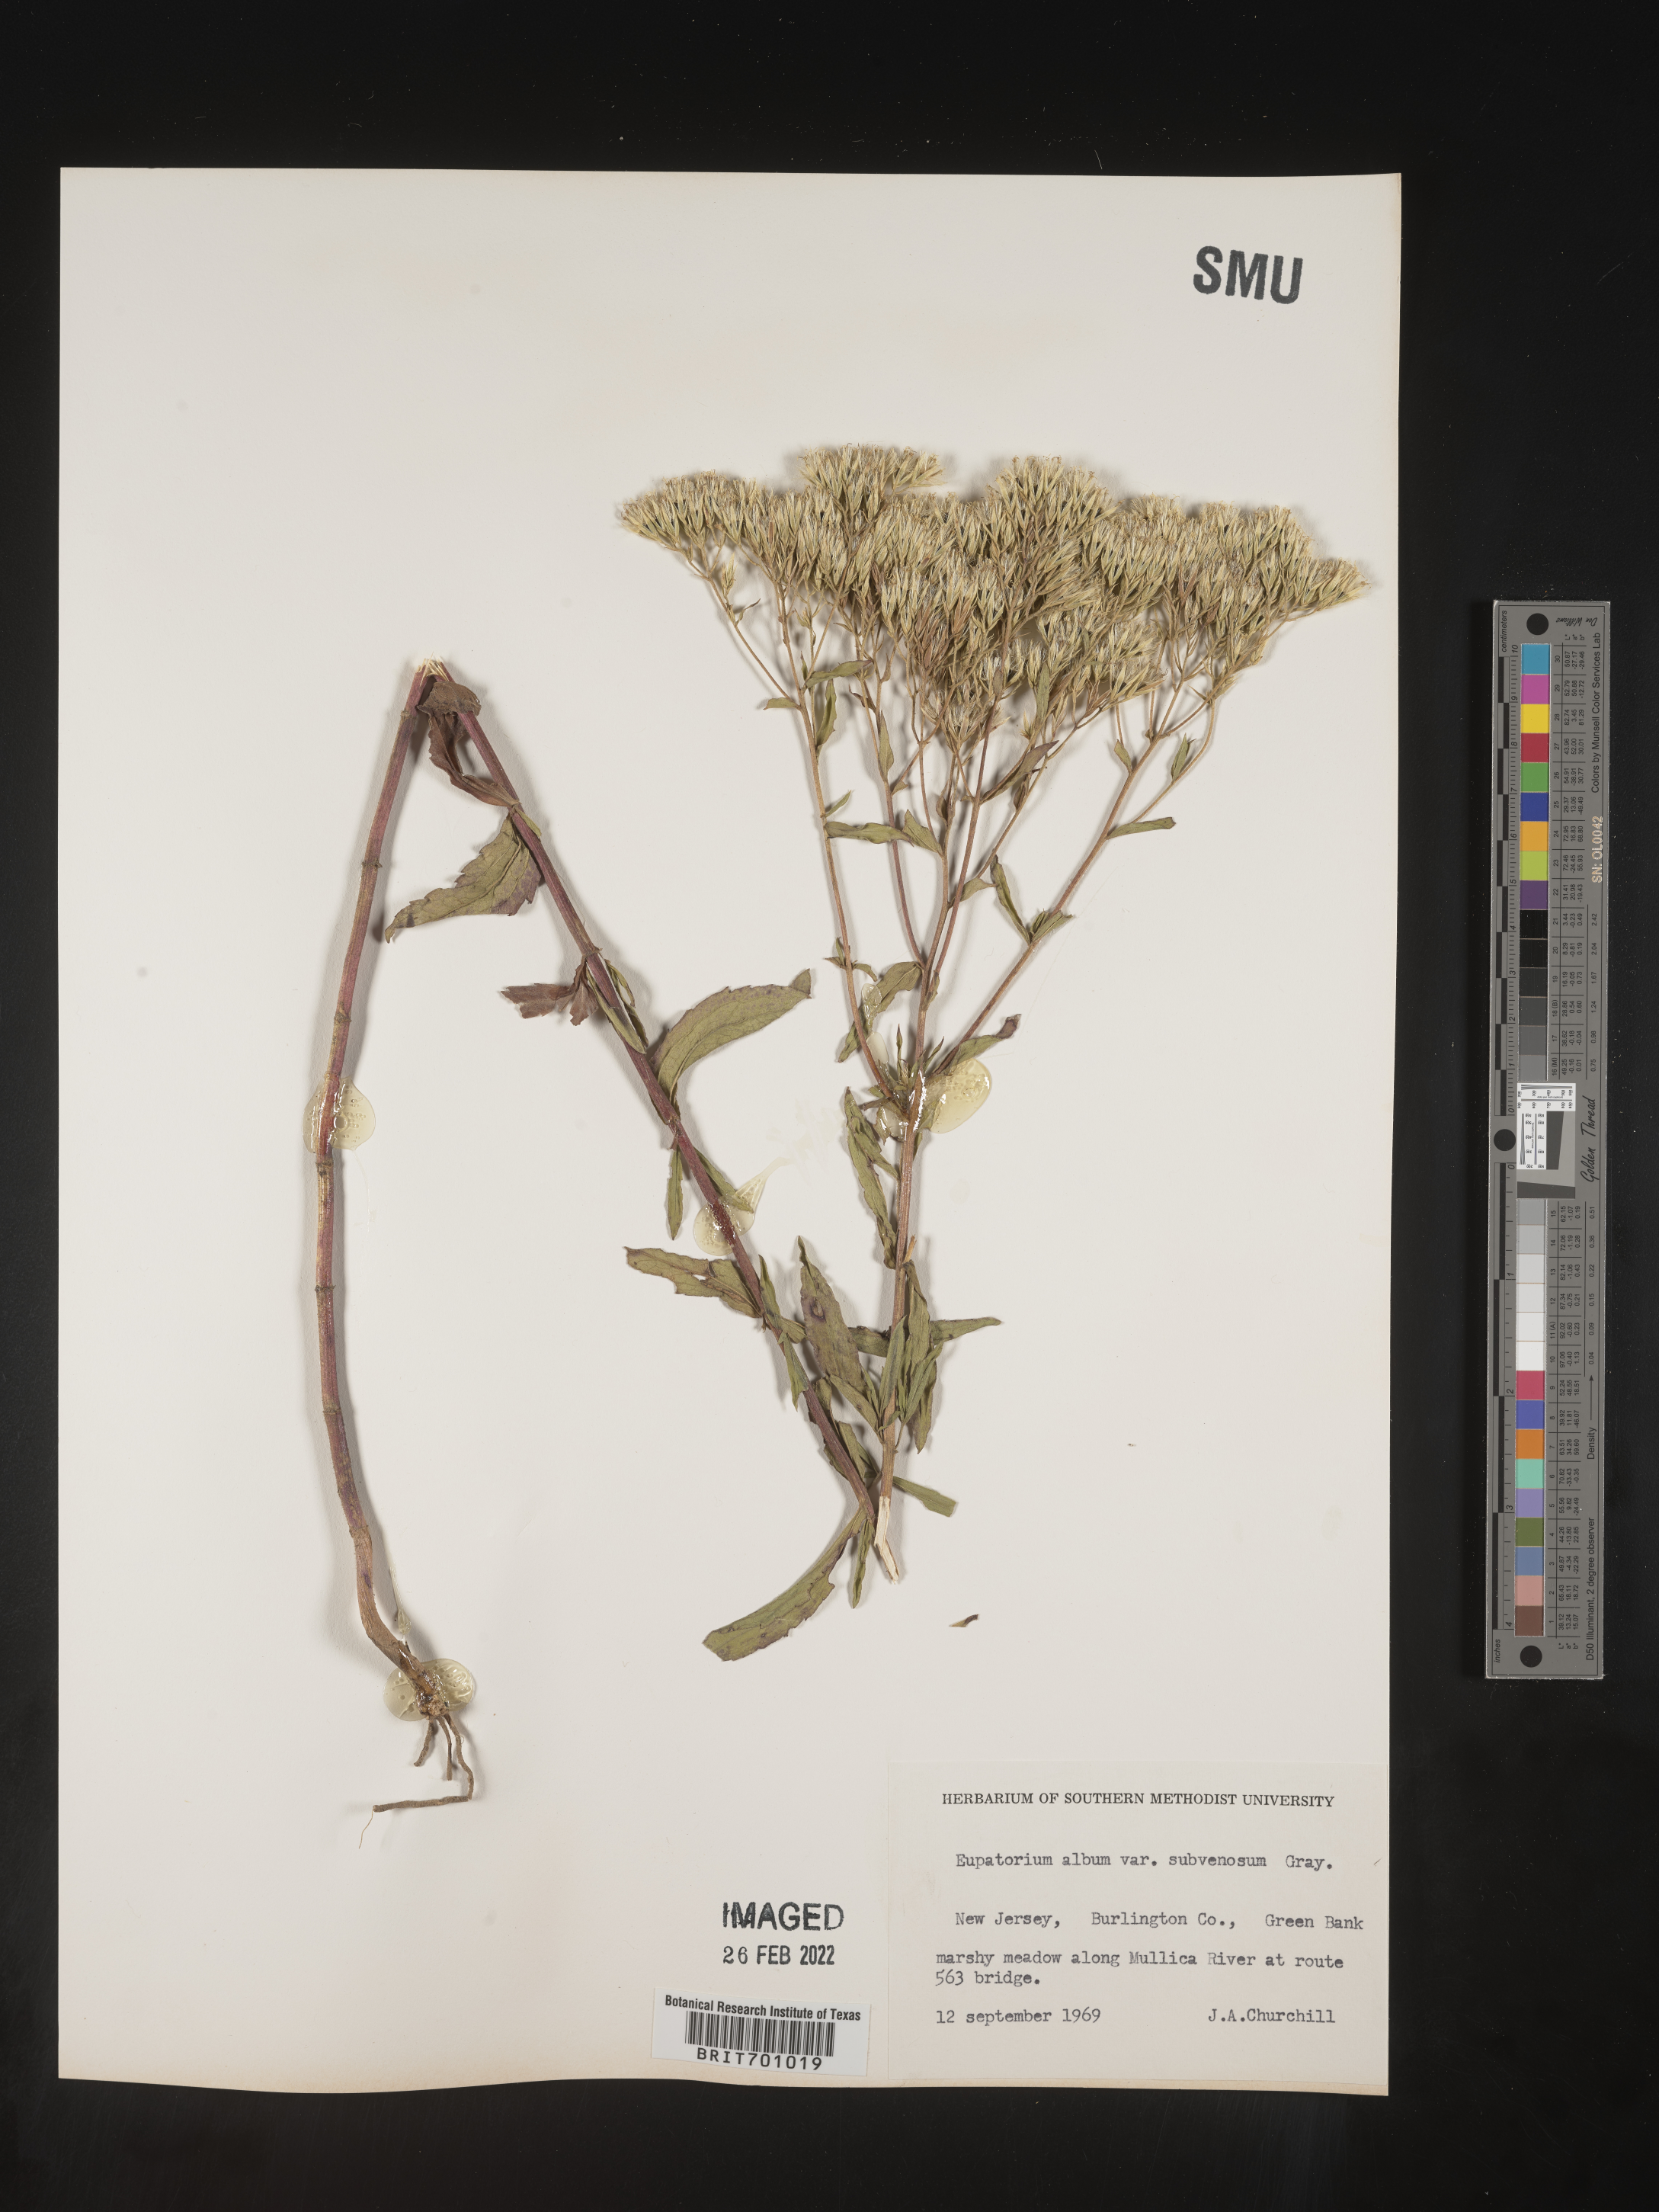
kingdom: Plantae
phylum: Tracheophyta
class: Magnoliopsida
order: Asterales
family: Asteraceae
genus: Eupatorium
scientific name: Eupatorium album
